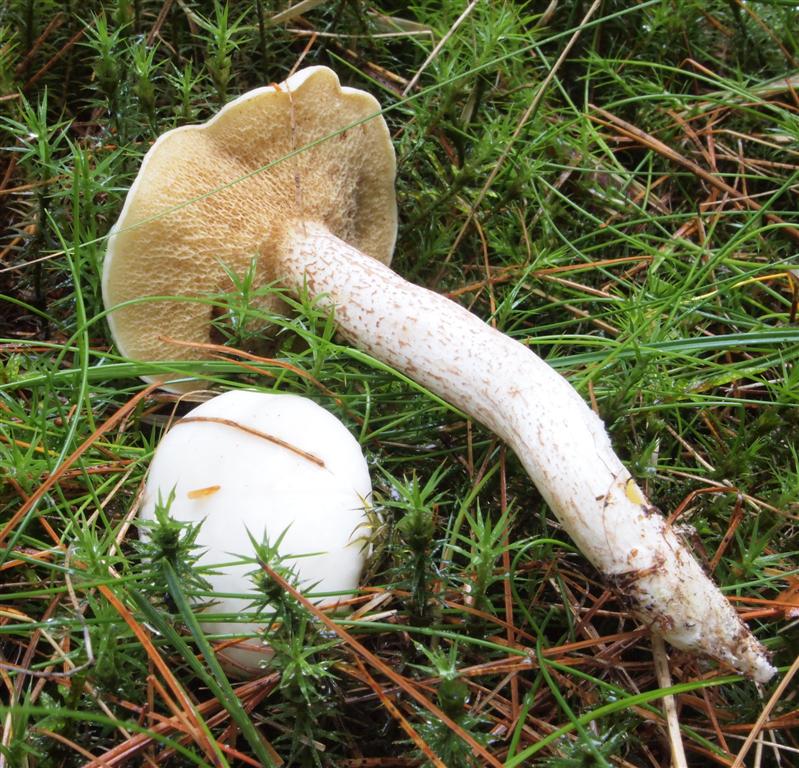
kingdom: Fungi
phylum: Basidiomycota
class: Agaricomycetes
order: Boletales
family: Suillaceae
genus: Suillus
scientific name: Suillus placidus
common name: elfenbens-slimrørhat
